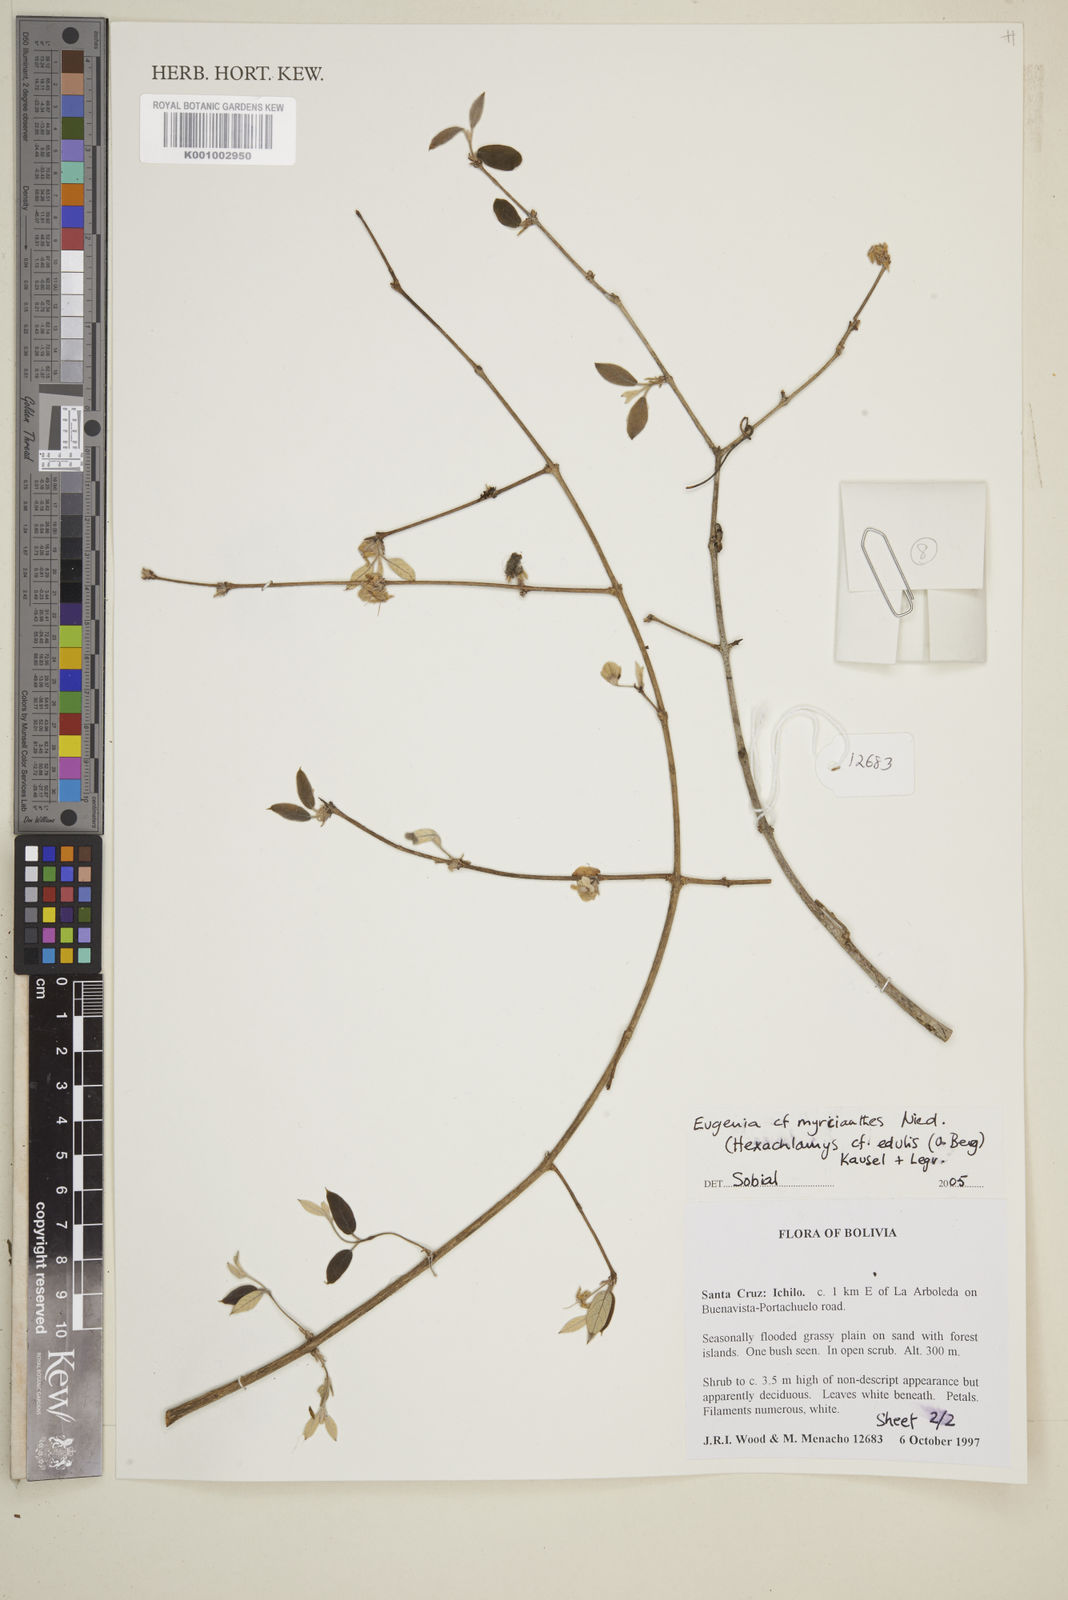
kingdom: Plantae
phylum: Tracheophyta
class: Magnoliopsida
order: Myrtales
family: Myrtaceae
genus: Eugenia
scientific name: Eugenia myrcianthes
